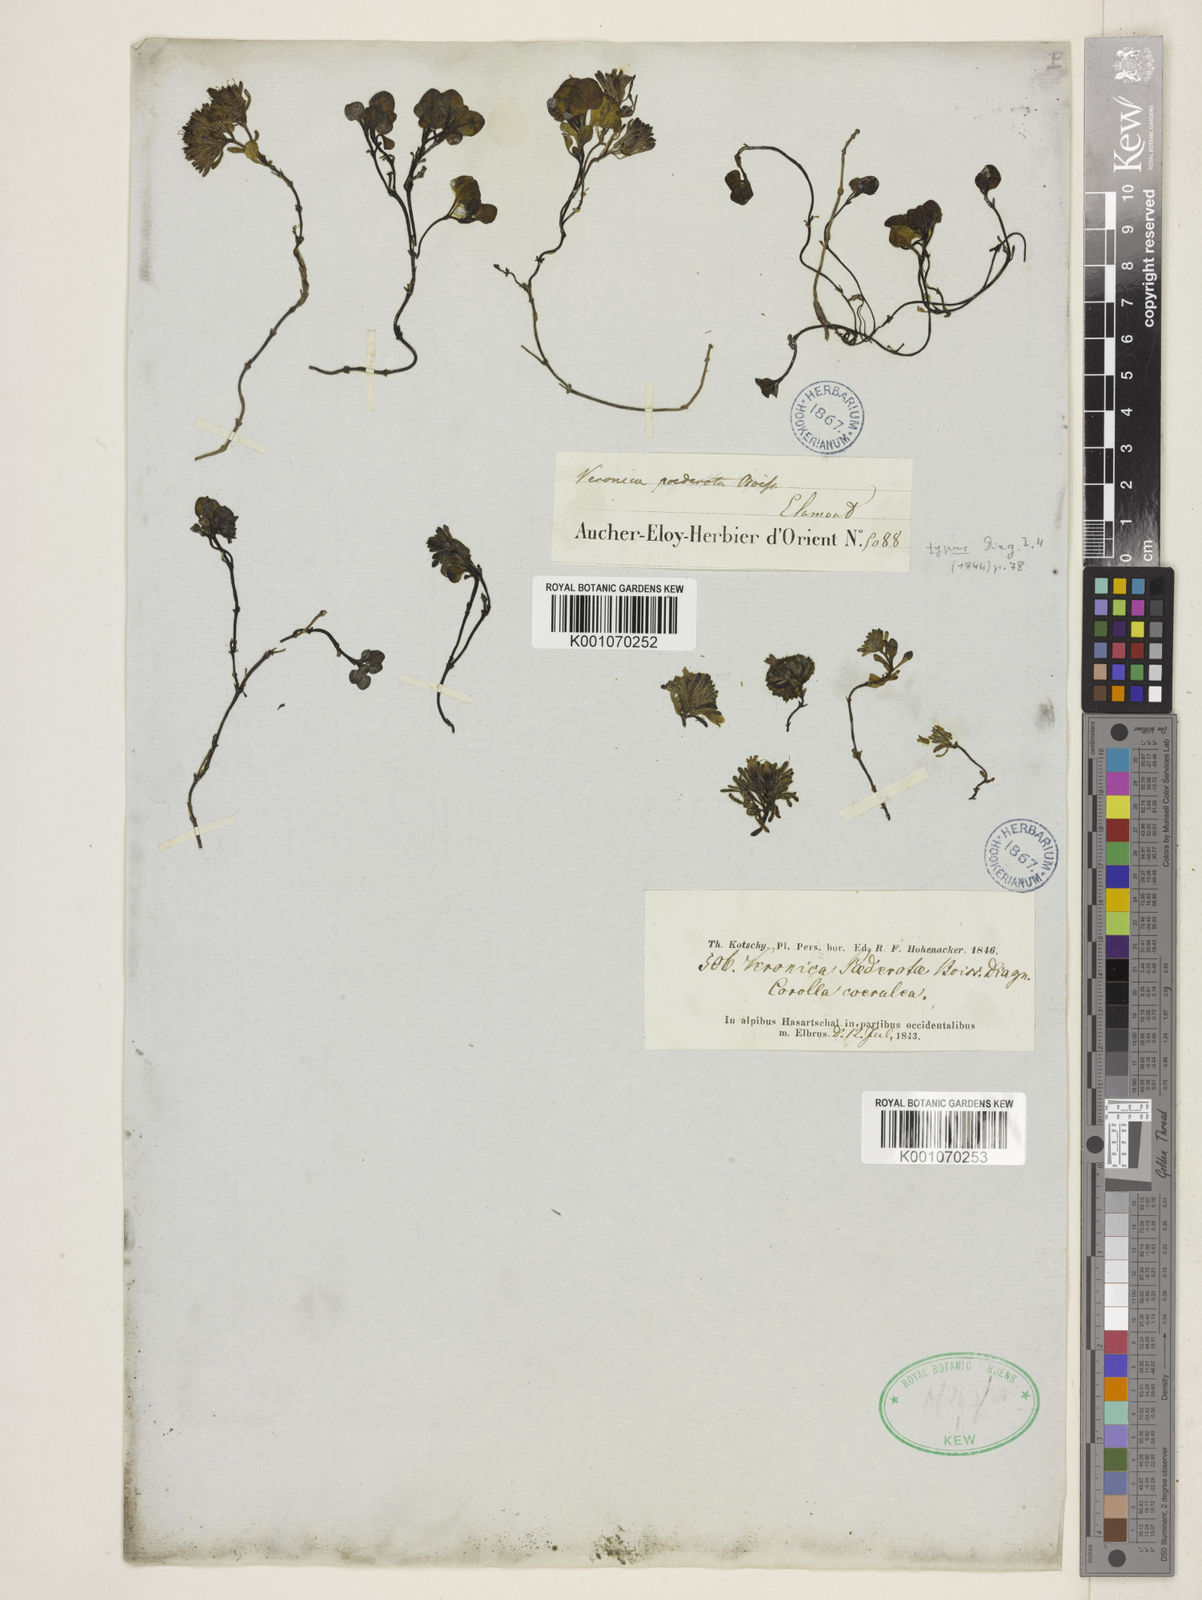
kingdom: Plantae
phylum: Tracheophyta
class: Magnoliopsida
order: Lamiales
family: Plantaginaceae
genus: Veronica
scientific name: Veronica paederotae
